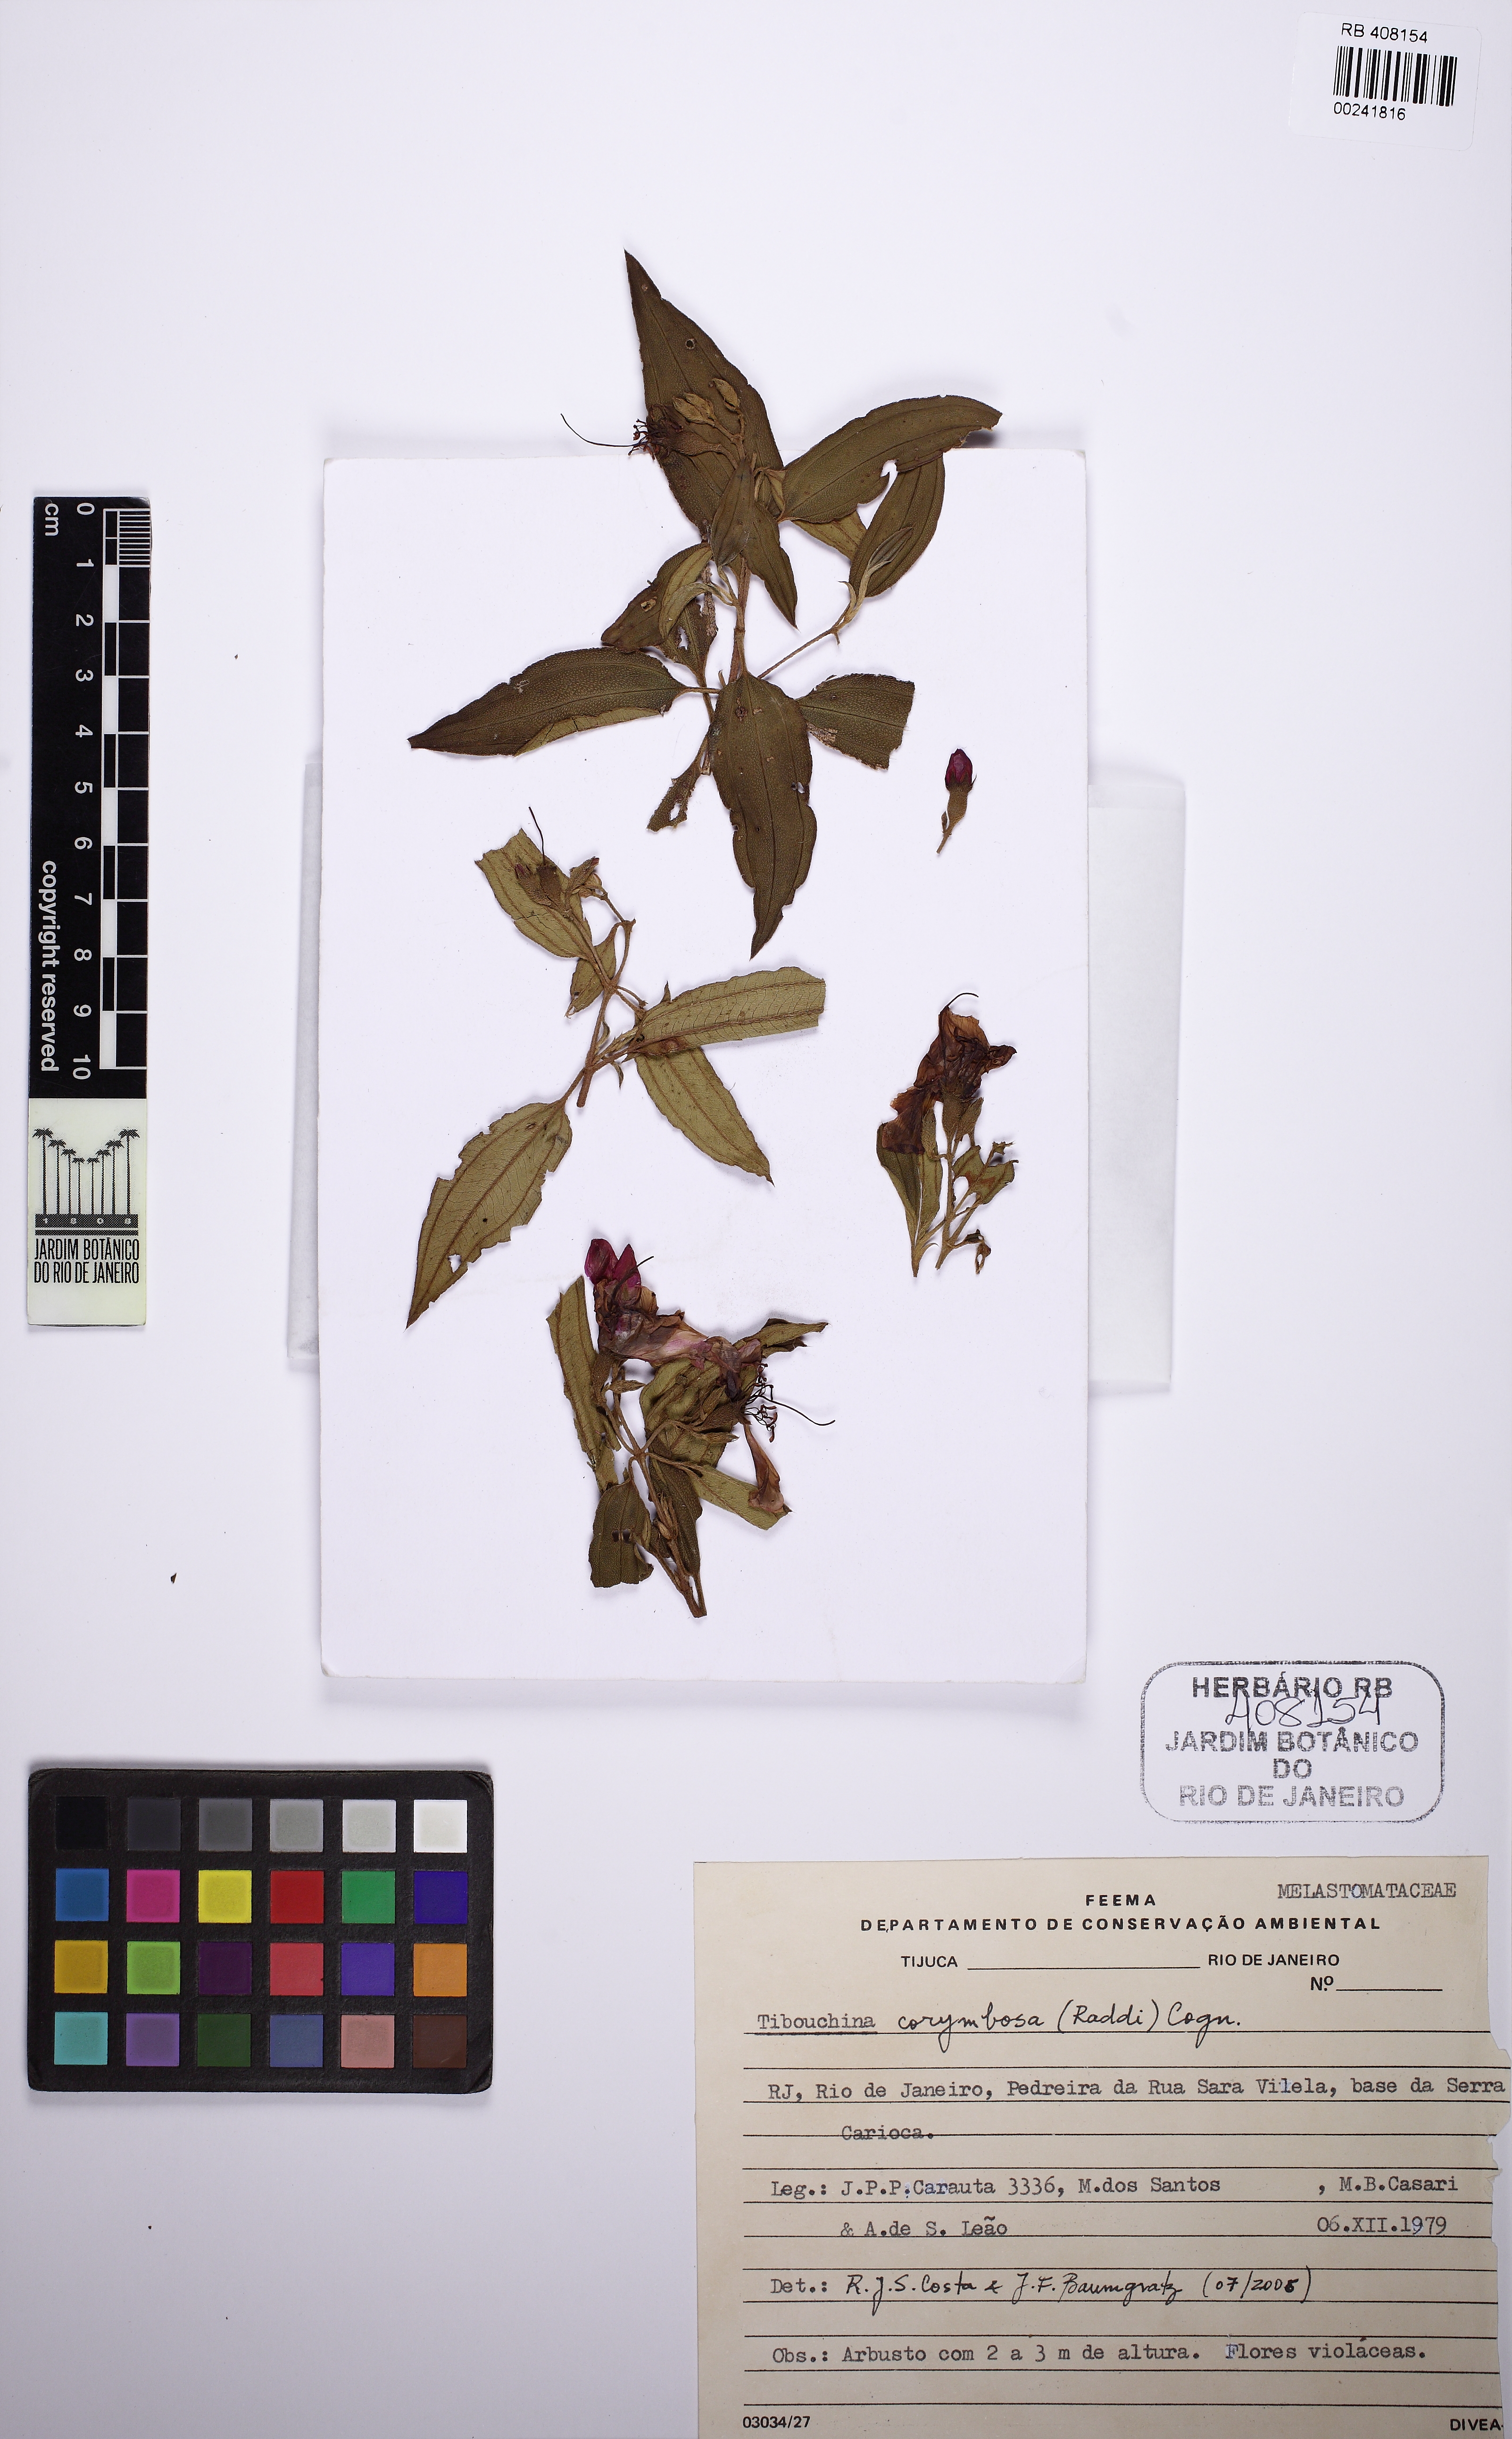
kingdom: Plantae
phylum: Tracheophyta
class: Magnoliopsida
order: Myrtales
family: Melastomataceae
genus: Pleroma
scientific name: Pleroma vimineum
